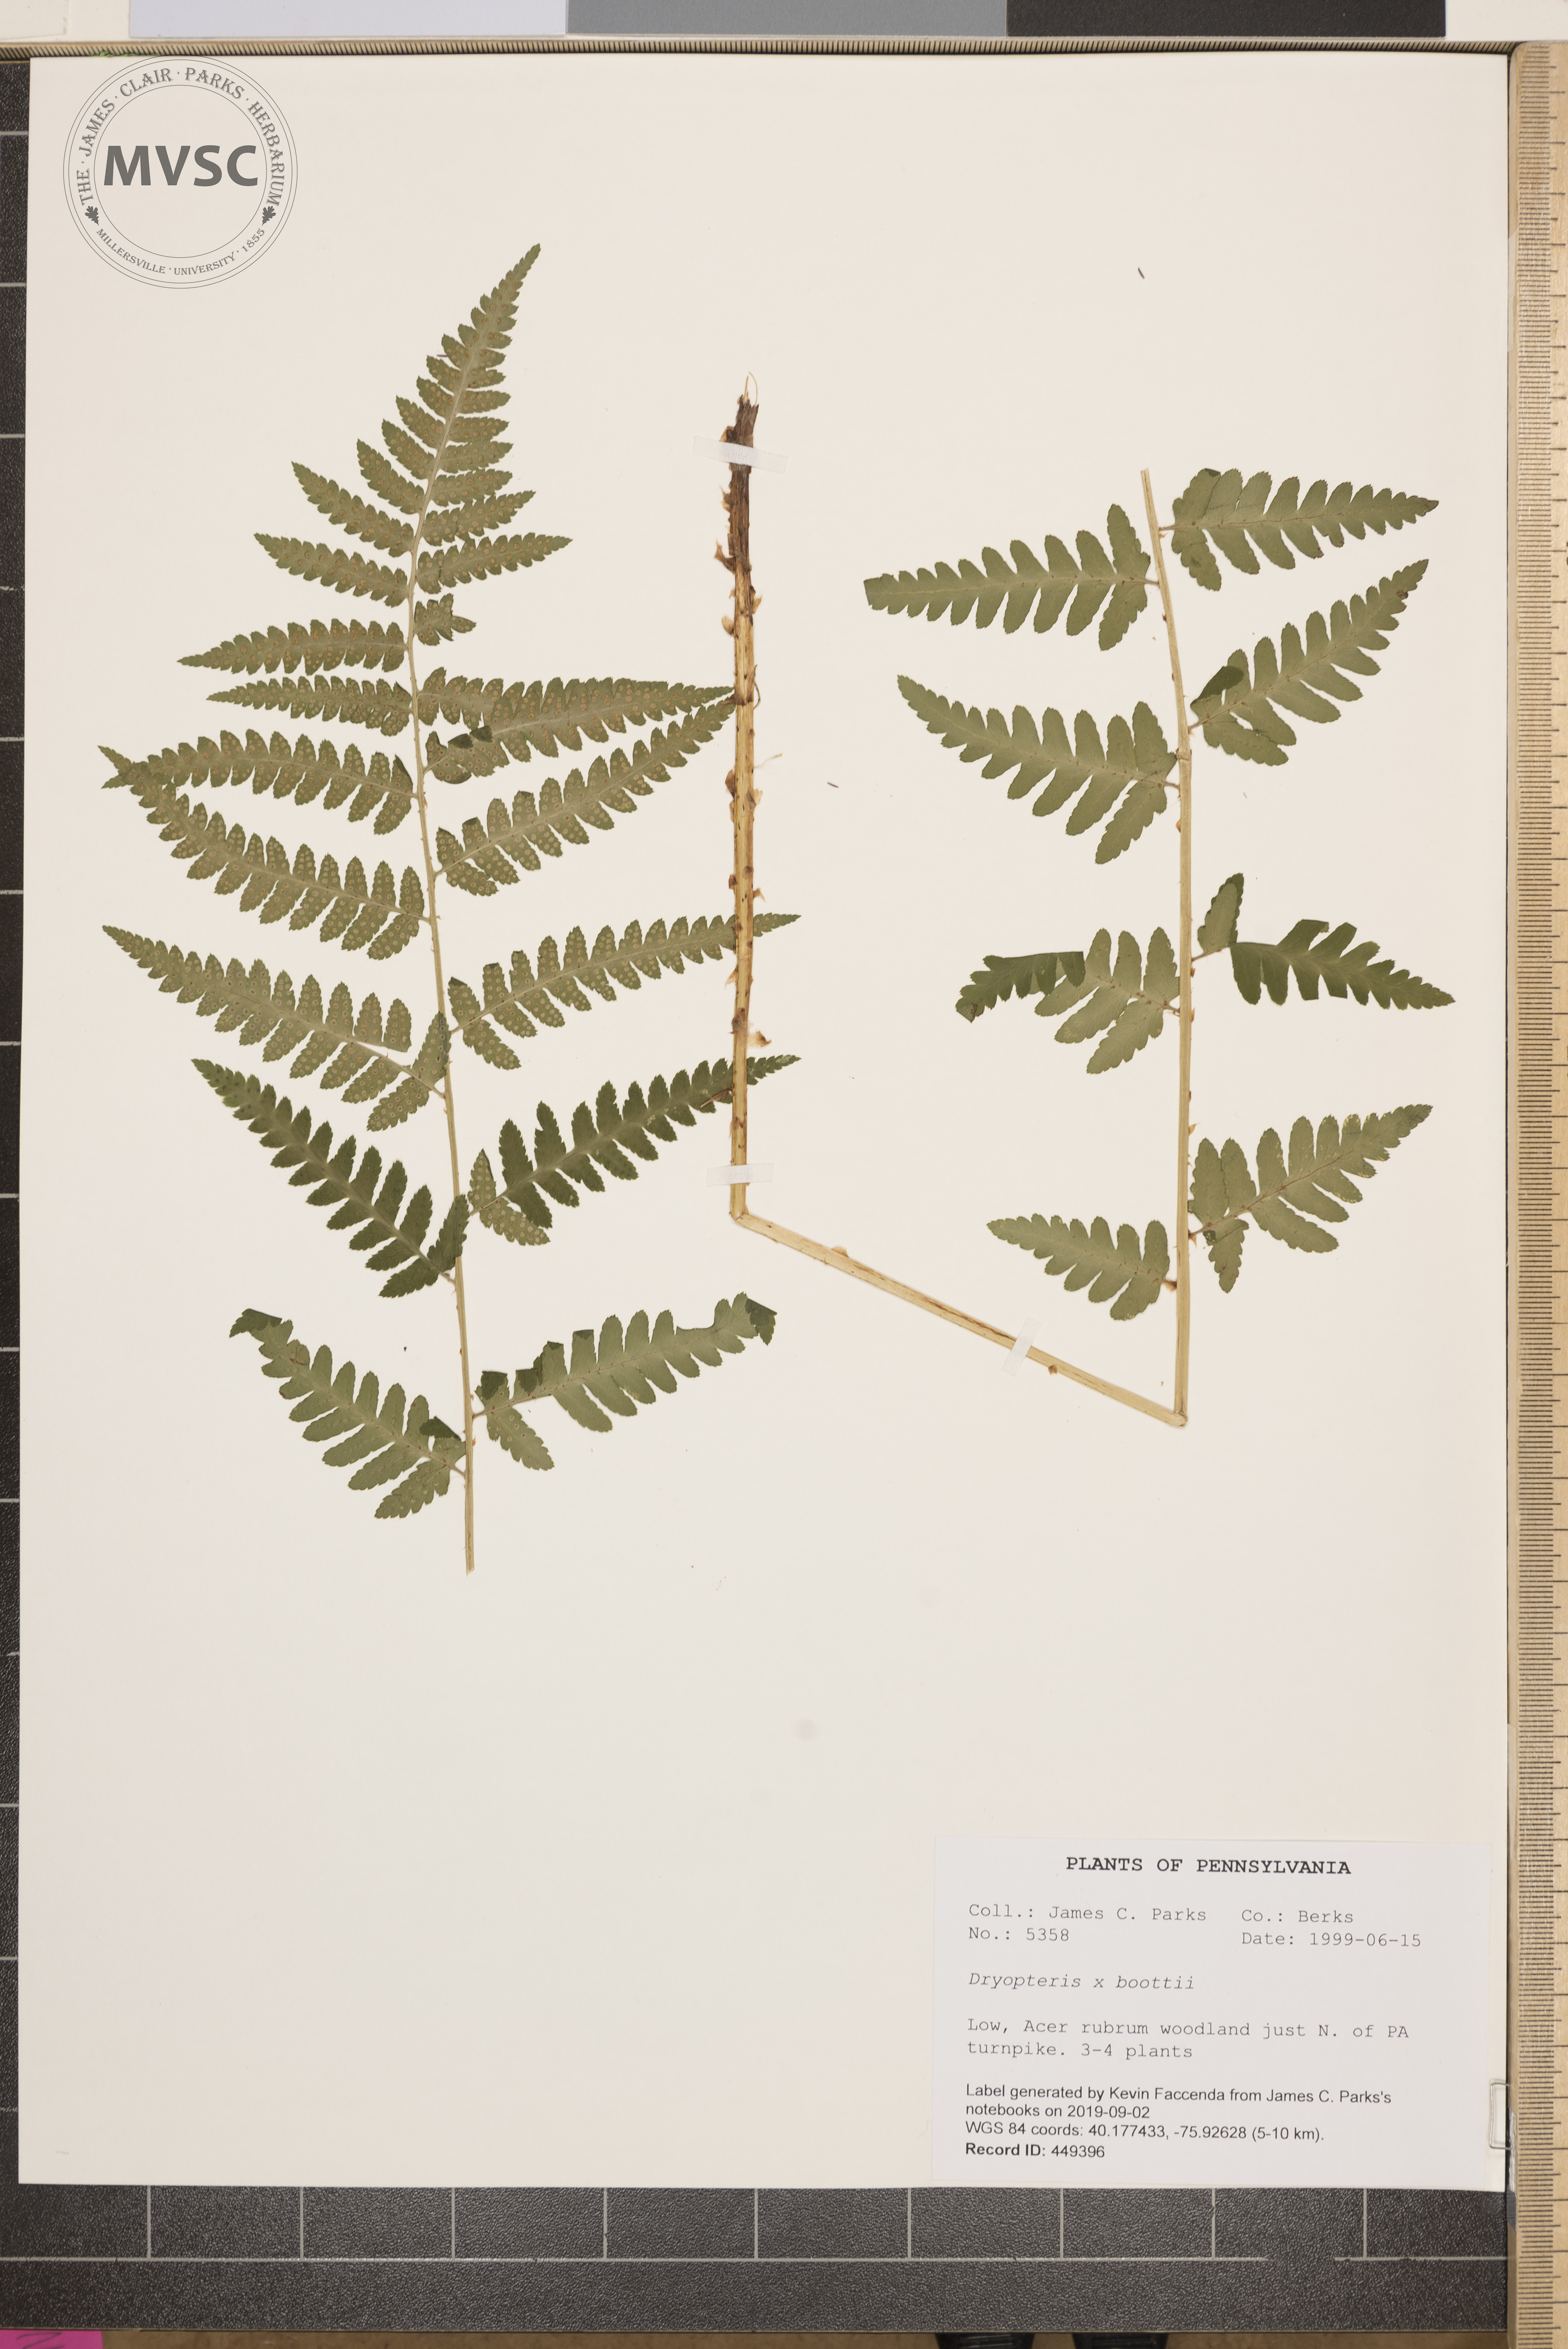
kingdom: Plantae
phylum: Tracheophyta
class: Polypodiopsida
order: Polypodiales
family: Dryopteridaceae
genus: Dryopteris
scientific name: Dryopteris clintoniana
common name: Clinton's wood fern
